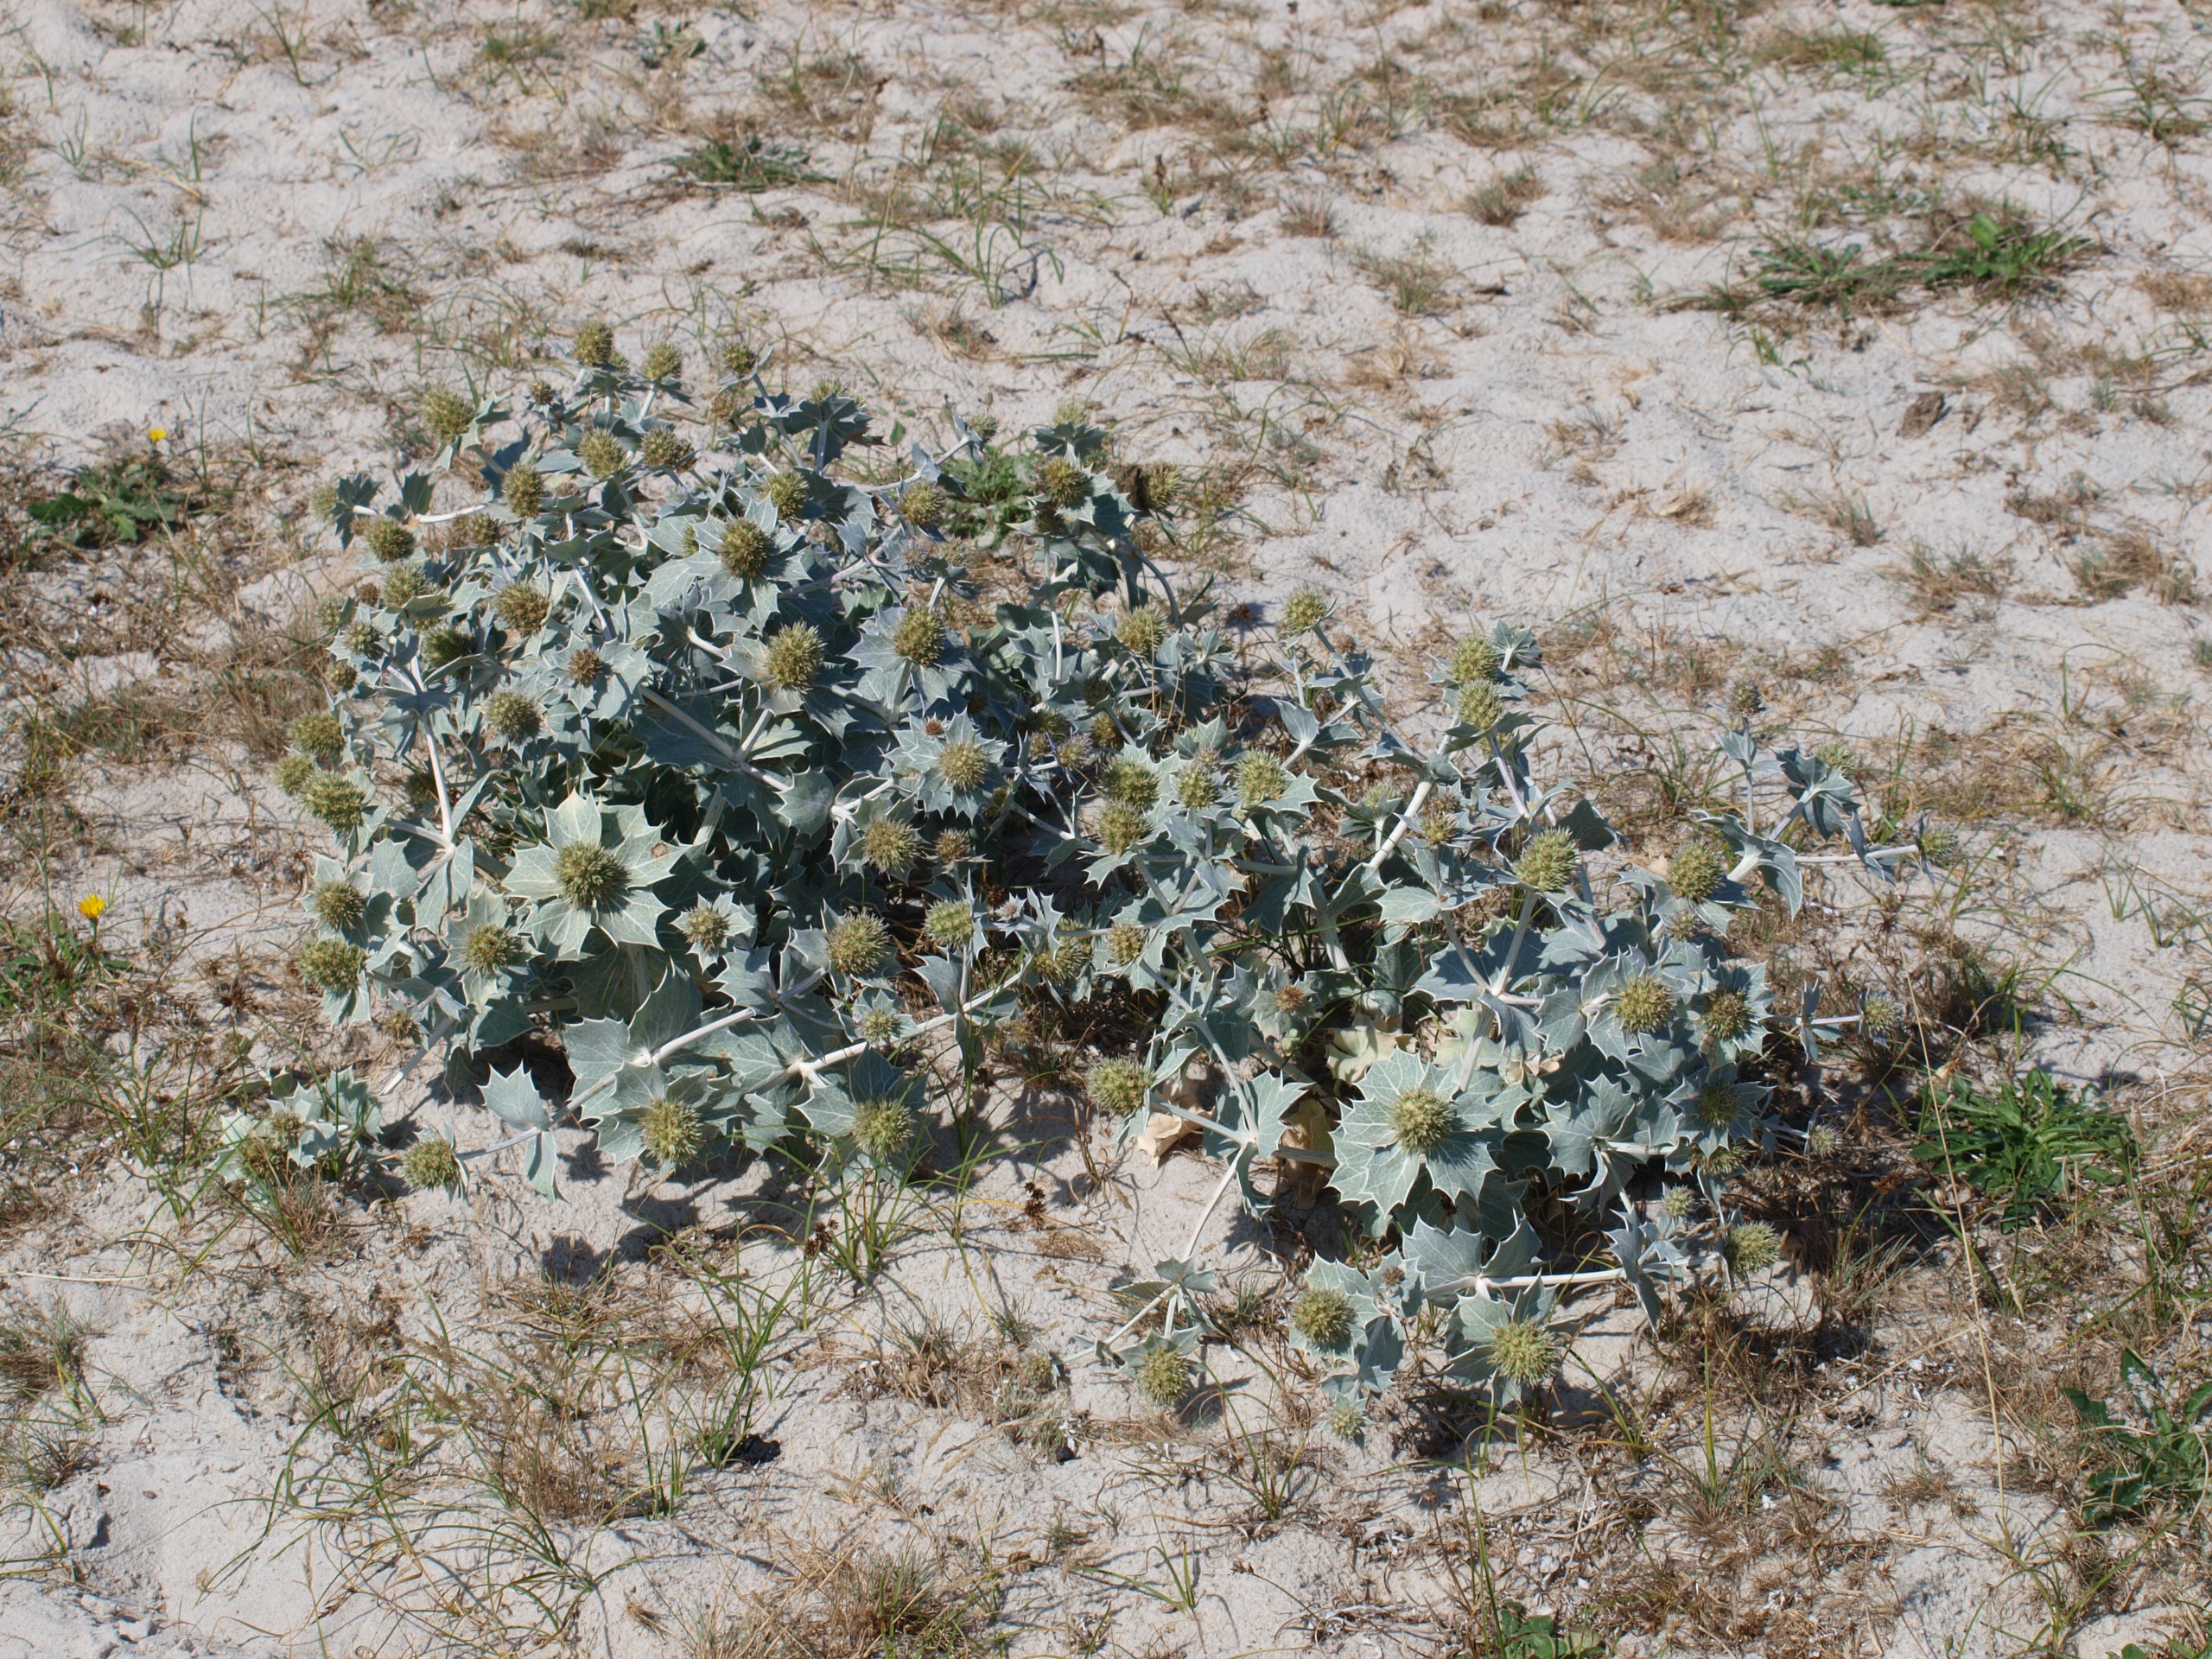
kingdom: Plantae
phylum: Tracheophyta
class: Magnoliopsida
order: Apiales
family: Apiaceae
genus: Eryngium
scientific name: Eryngium maritimum
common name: Strand-mandstro
